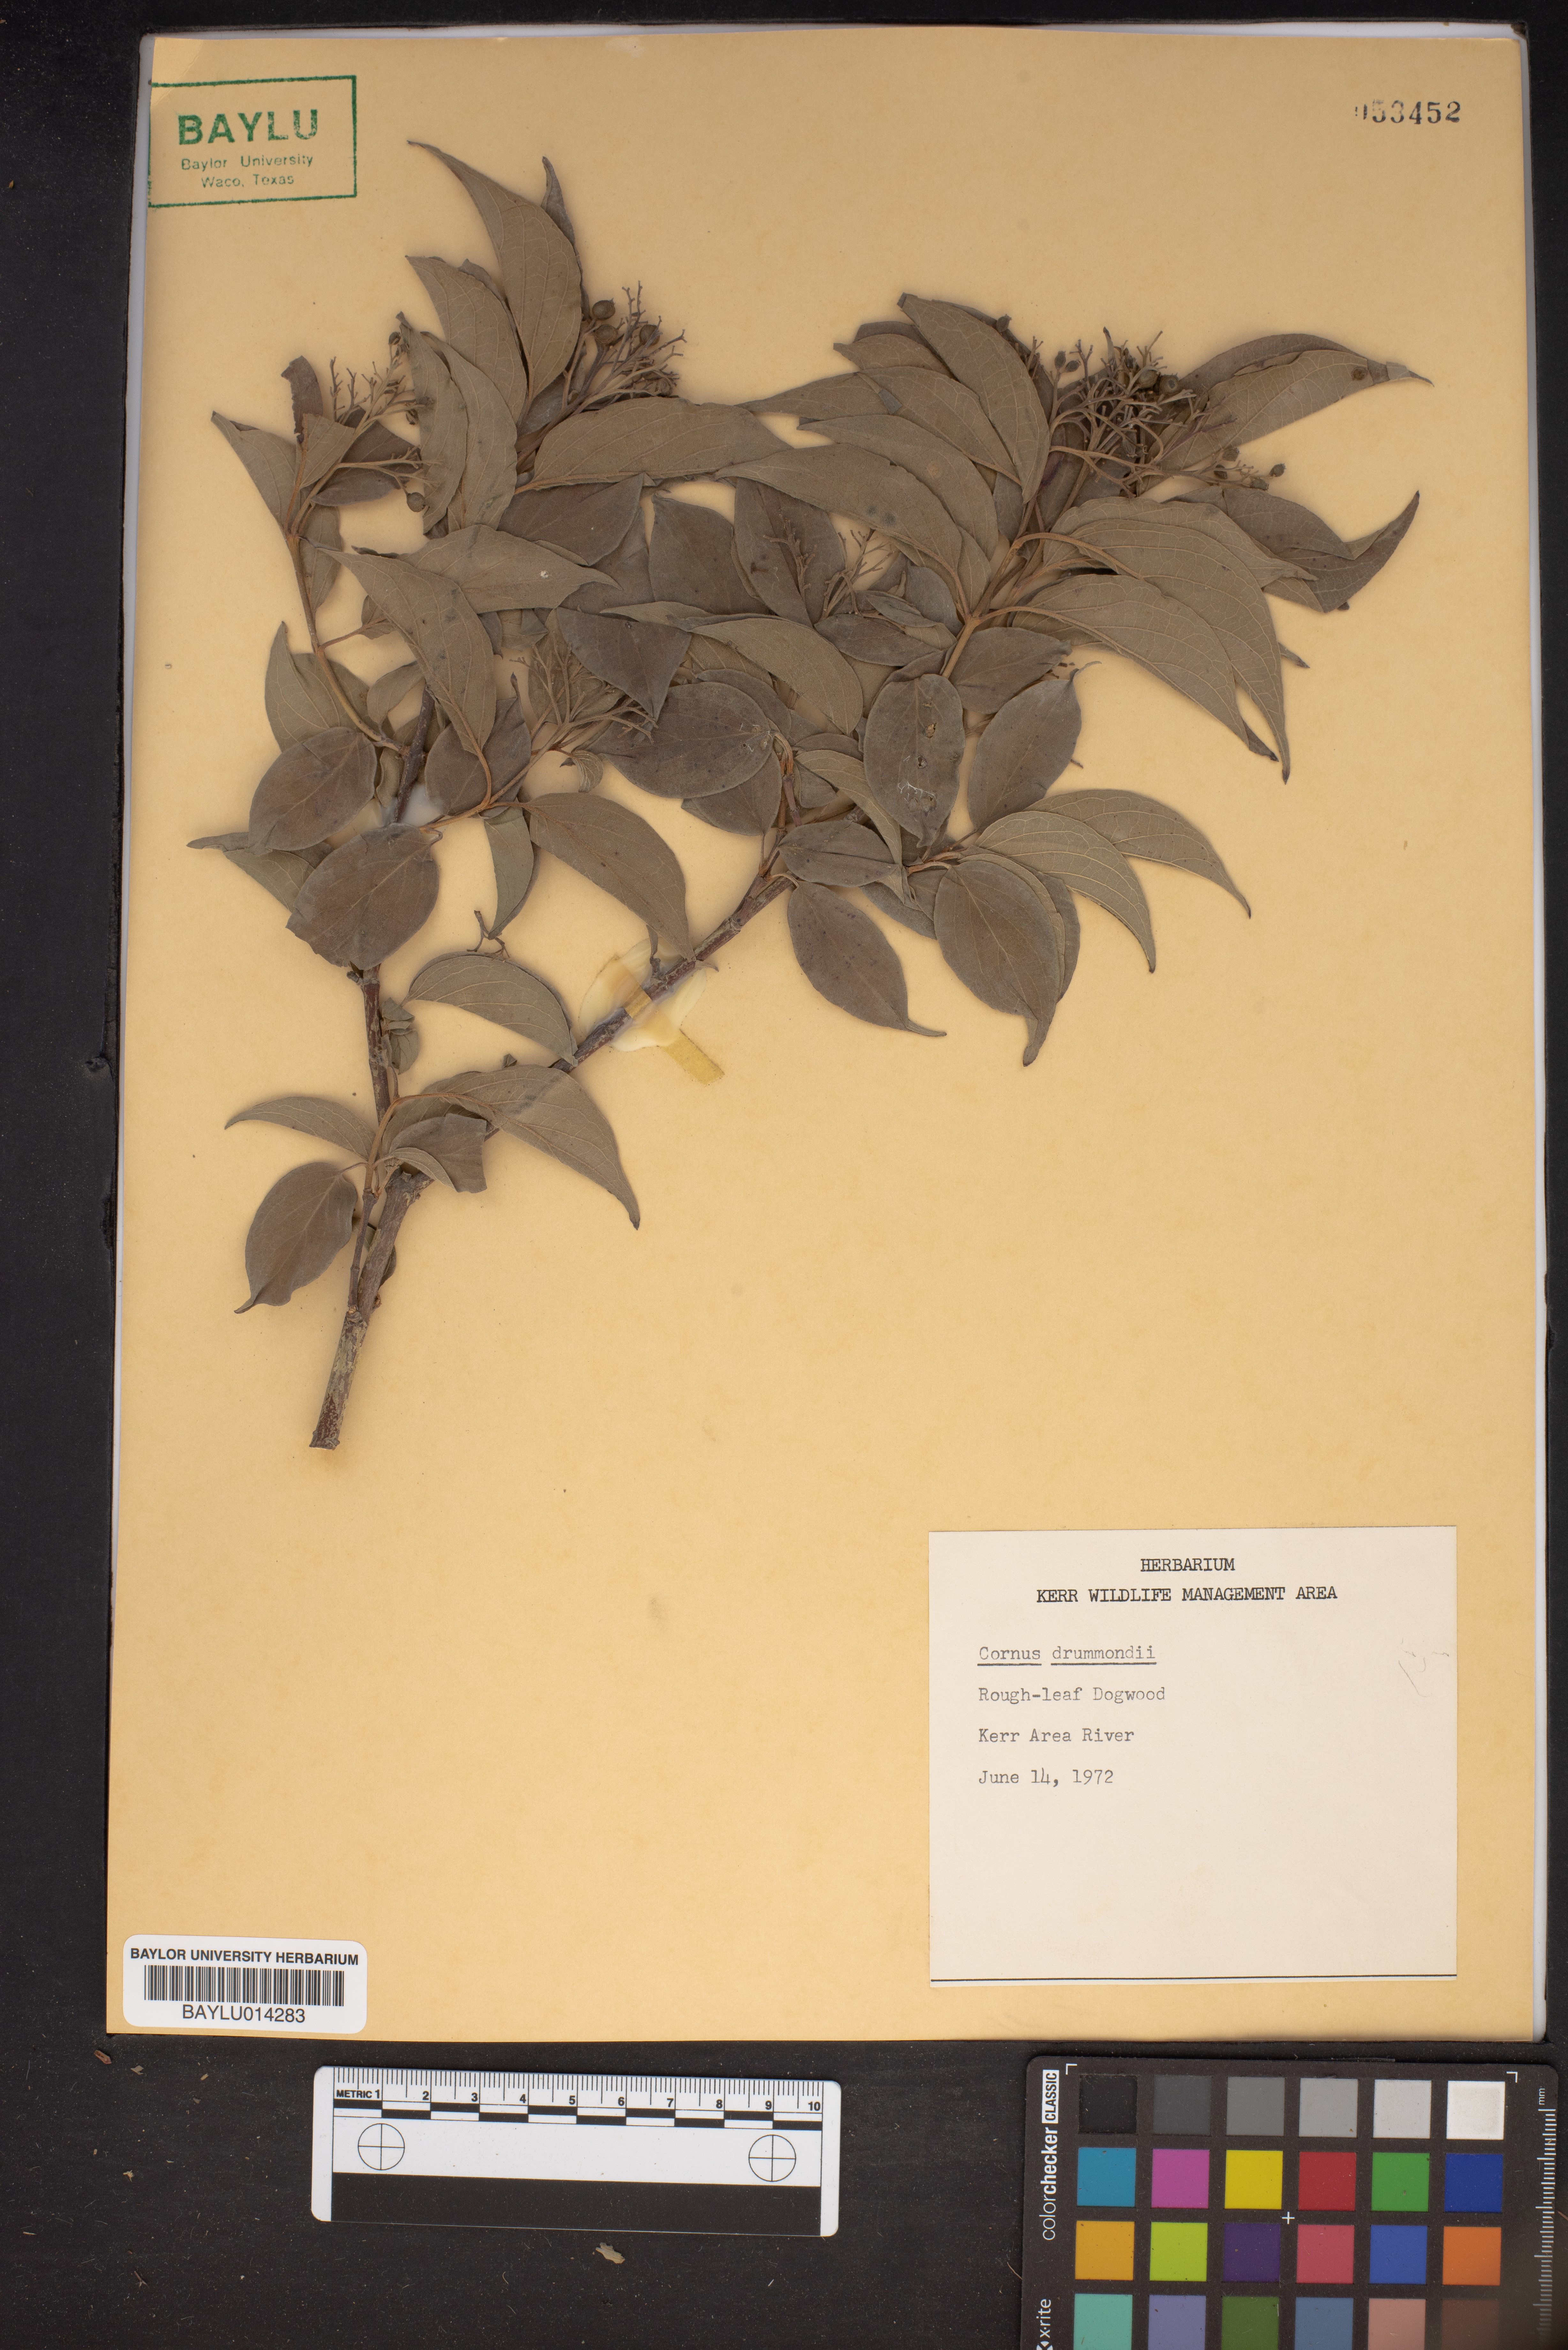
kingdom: Plantae
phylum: Tracheophyta
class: Magnoliopsida
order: Cornales
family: Cornaceae
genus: Cornus
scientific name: Cornus drummondii
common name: Rough-leaf dogwood
